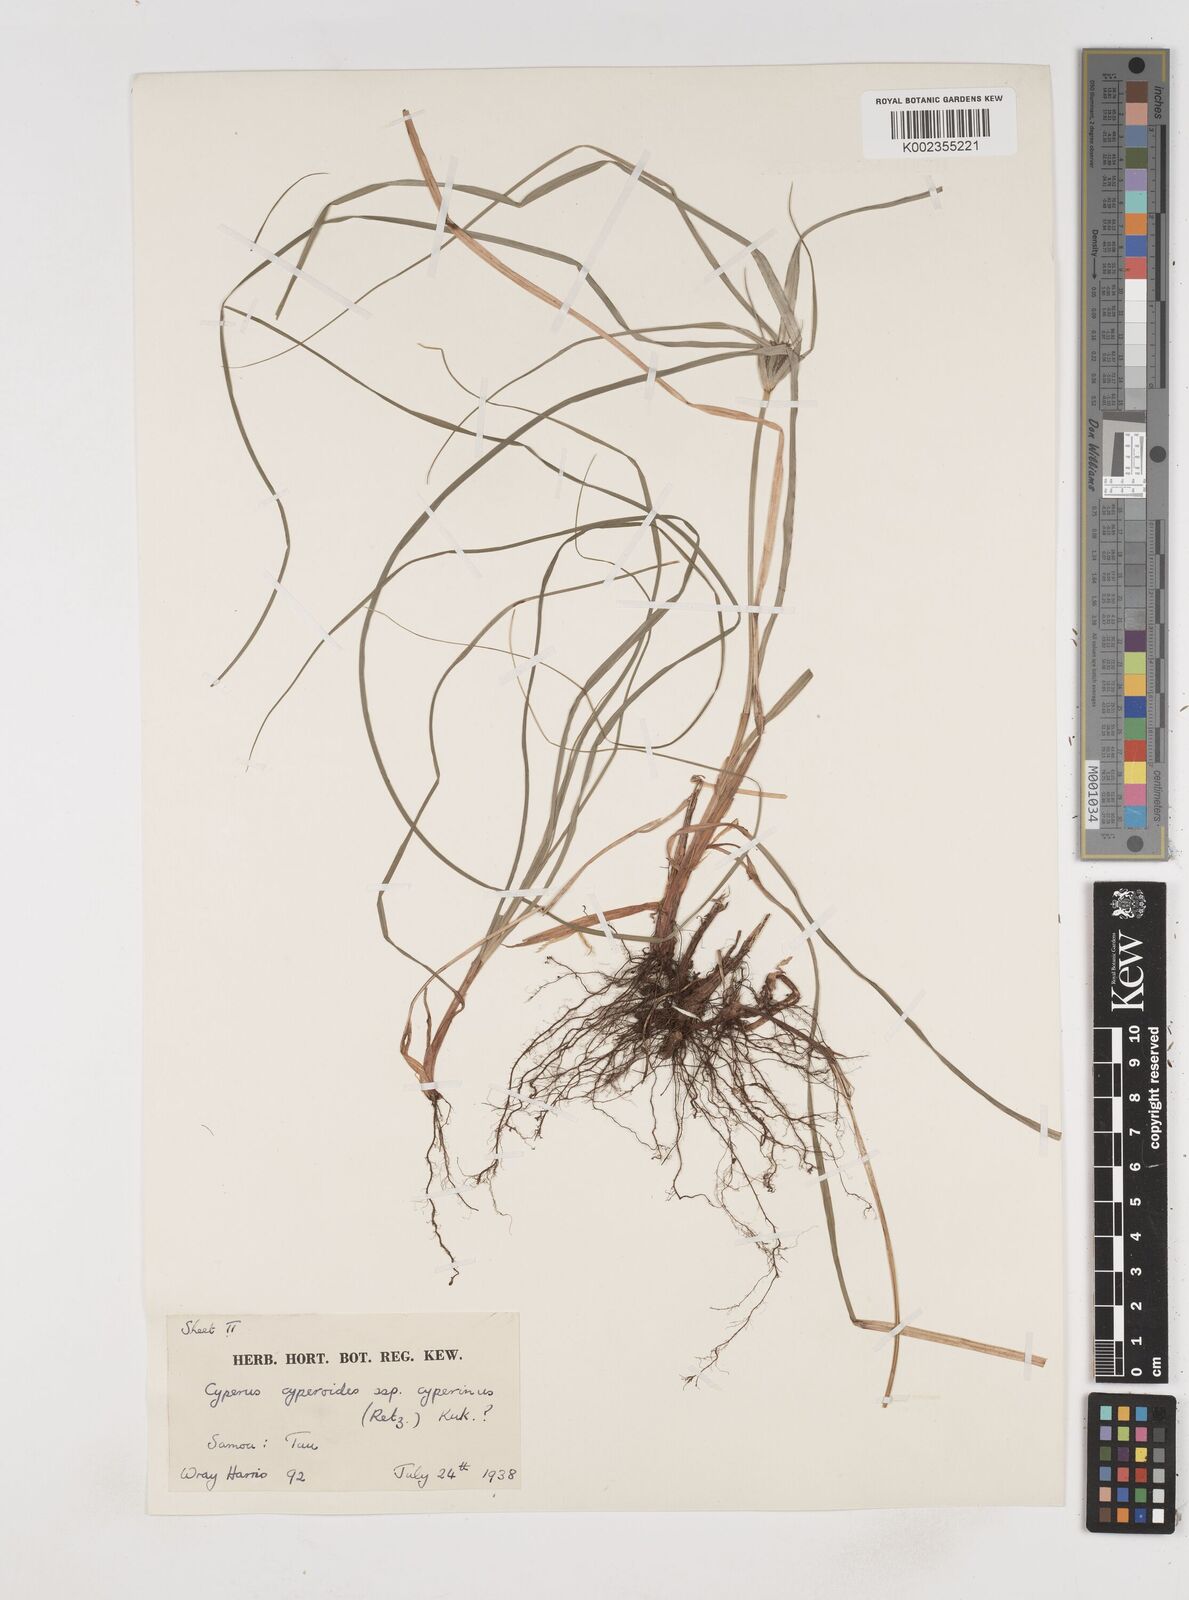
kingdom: Plantae
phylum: Tracheophyta
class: Liliopsida
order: Poales
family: Cyperaceae
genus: Cyperus
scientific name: Cyperus cyperinus
